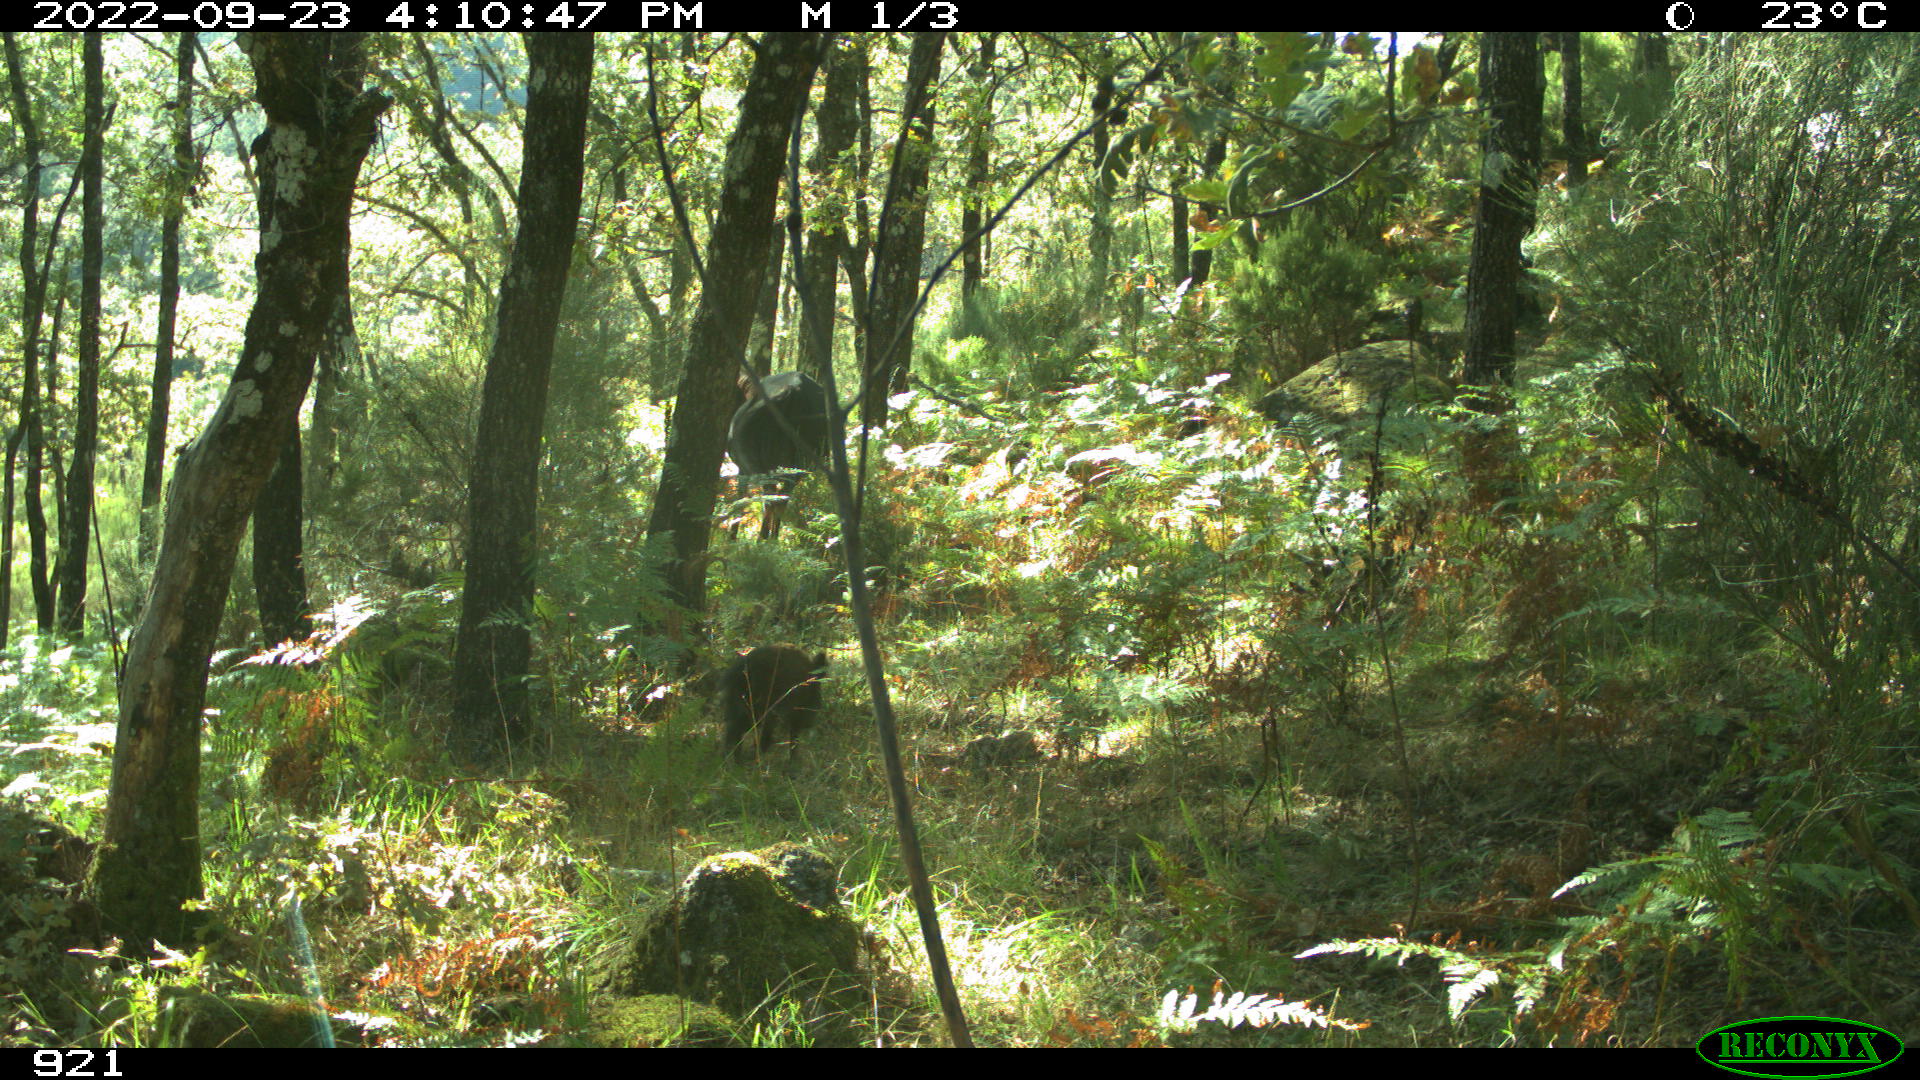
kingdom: Animalia
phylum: Chordata
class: Mammalia
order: Perissodactyla
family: Equidae
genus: Equus
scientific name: Equus caballus
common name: Horse
